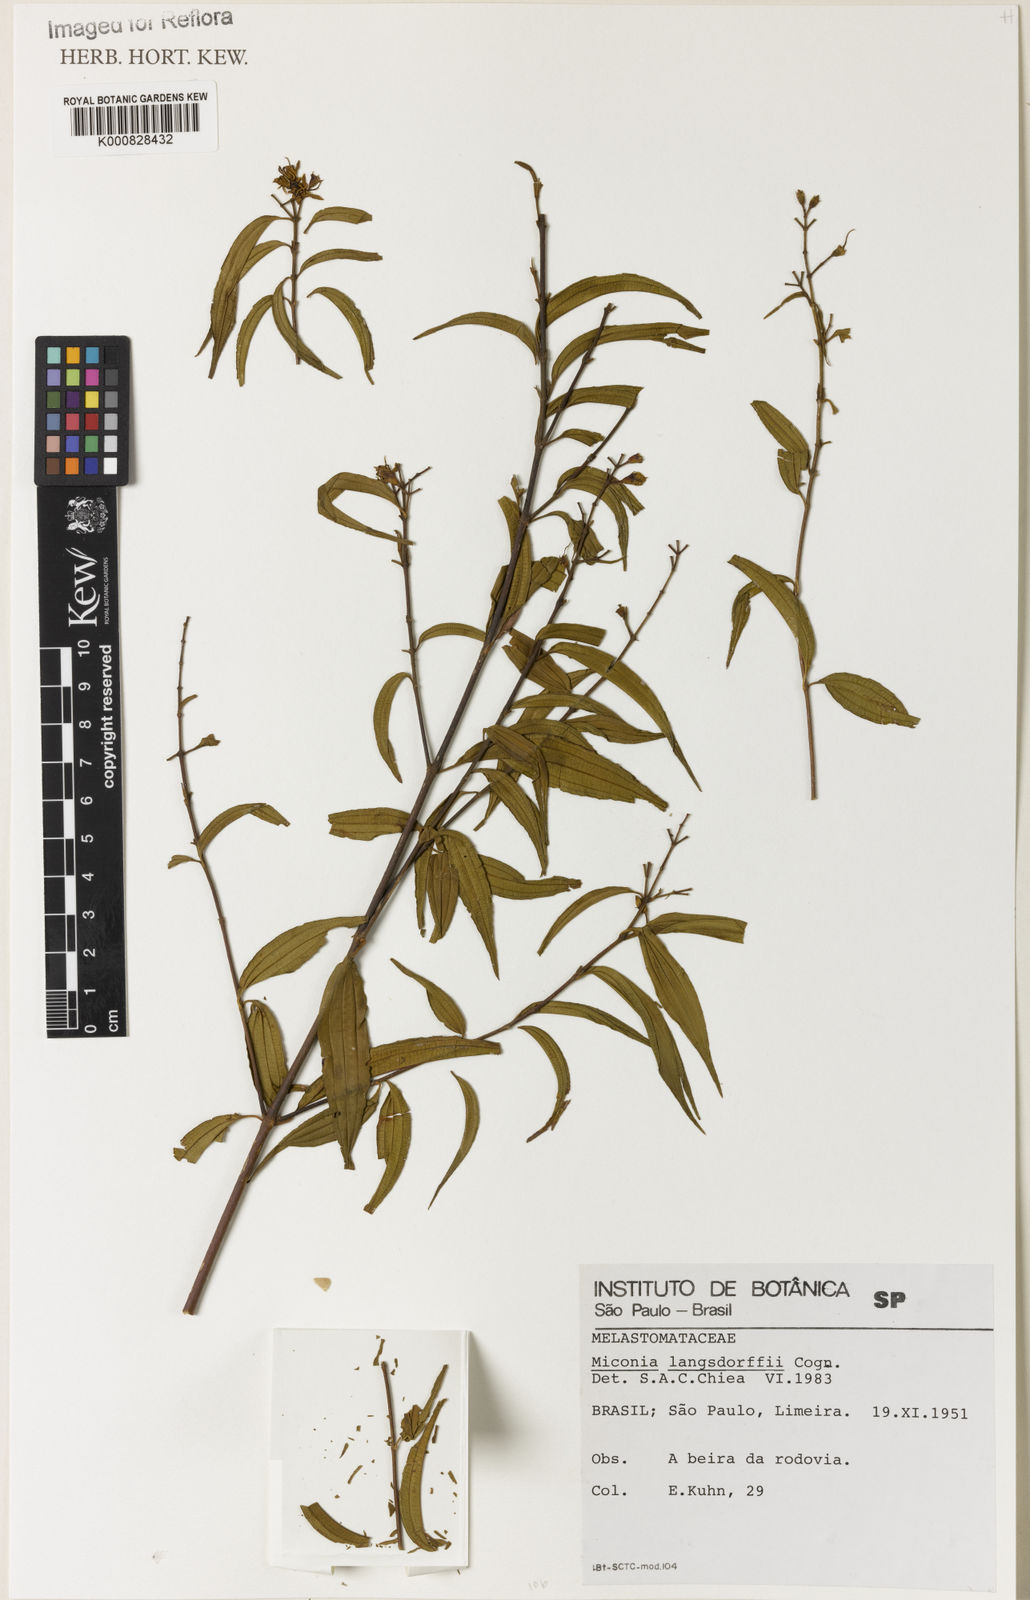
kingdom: Plantae
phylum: Tracheophyta
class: Magnoliopsida
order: Myrtales
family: Melastomataceae
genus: Miconia
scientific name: Miconia langsdorffii
